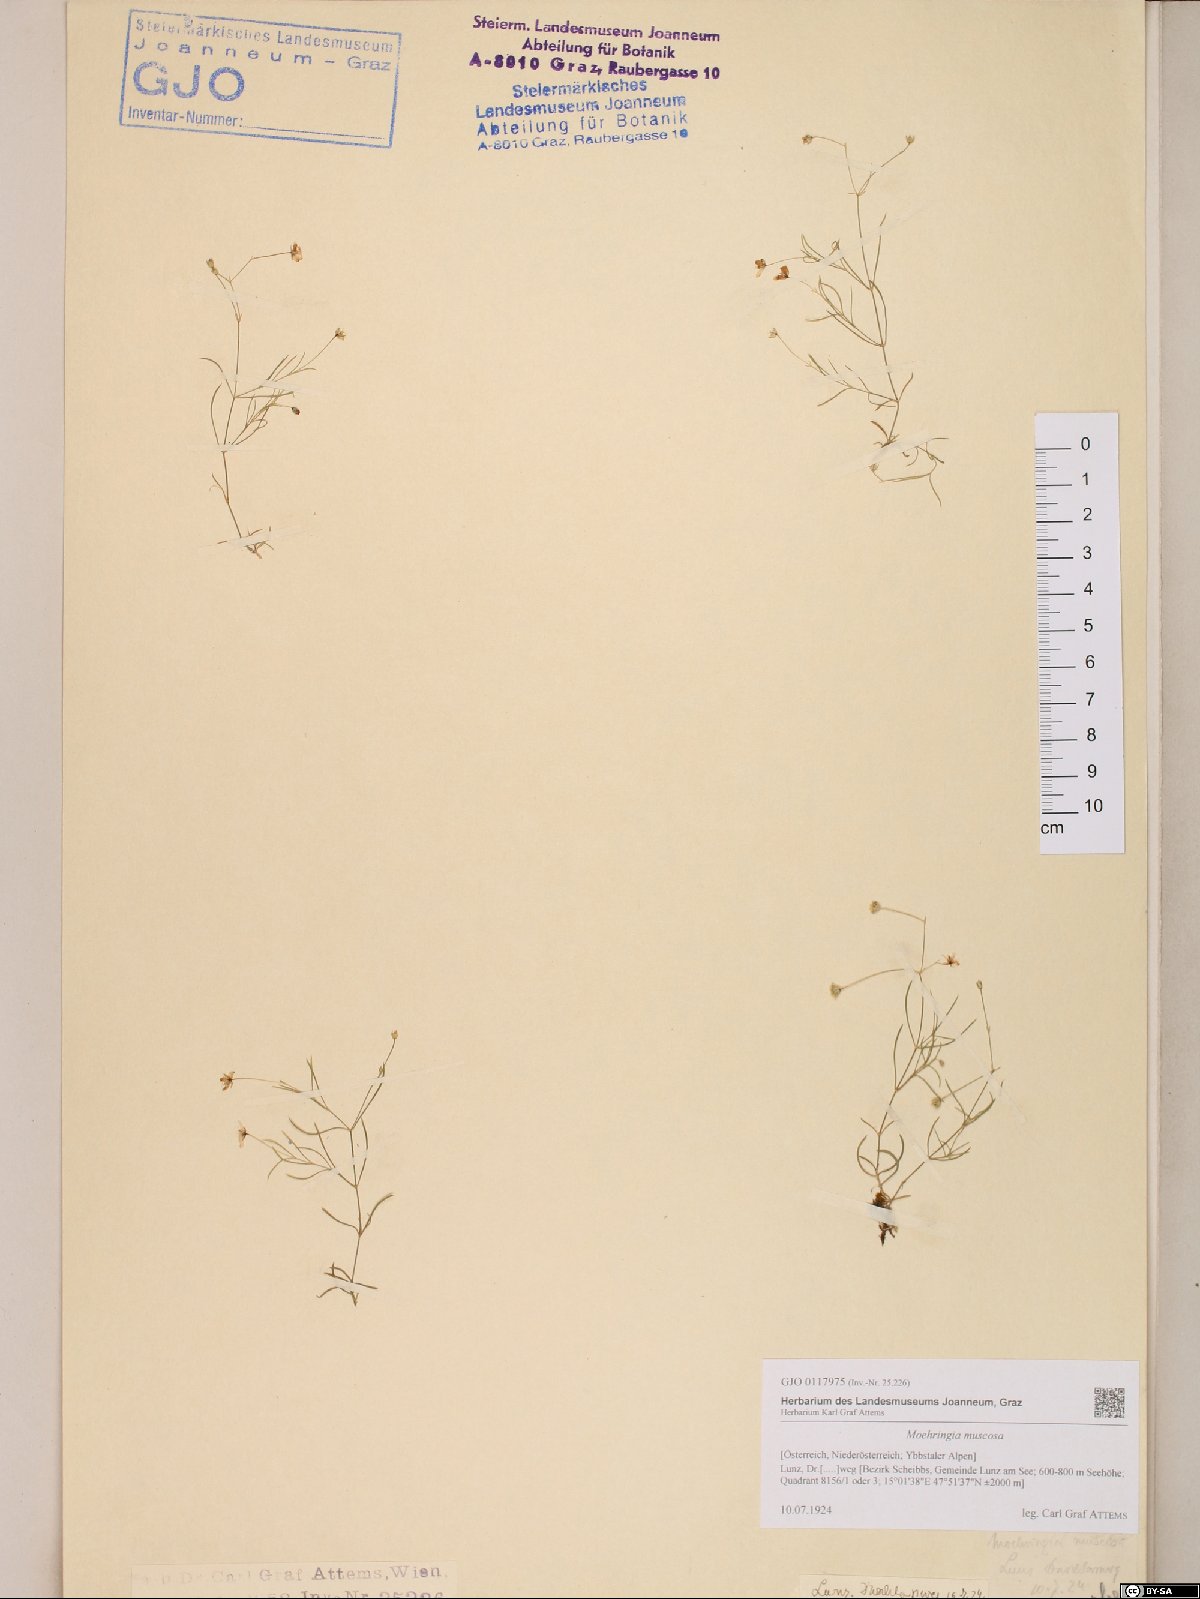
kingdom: Plantae
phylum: Tracheophyta
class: Magnoliopsida
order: Caryophyllales
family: Caryophyllaceae
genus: Moehringia
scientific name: Moehringia muscosa
